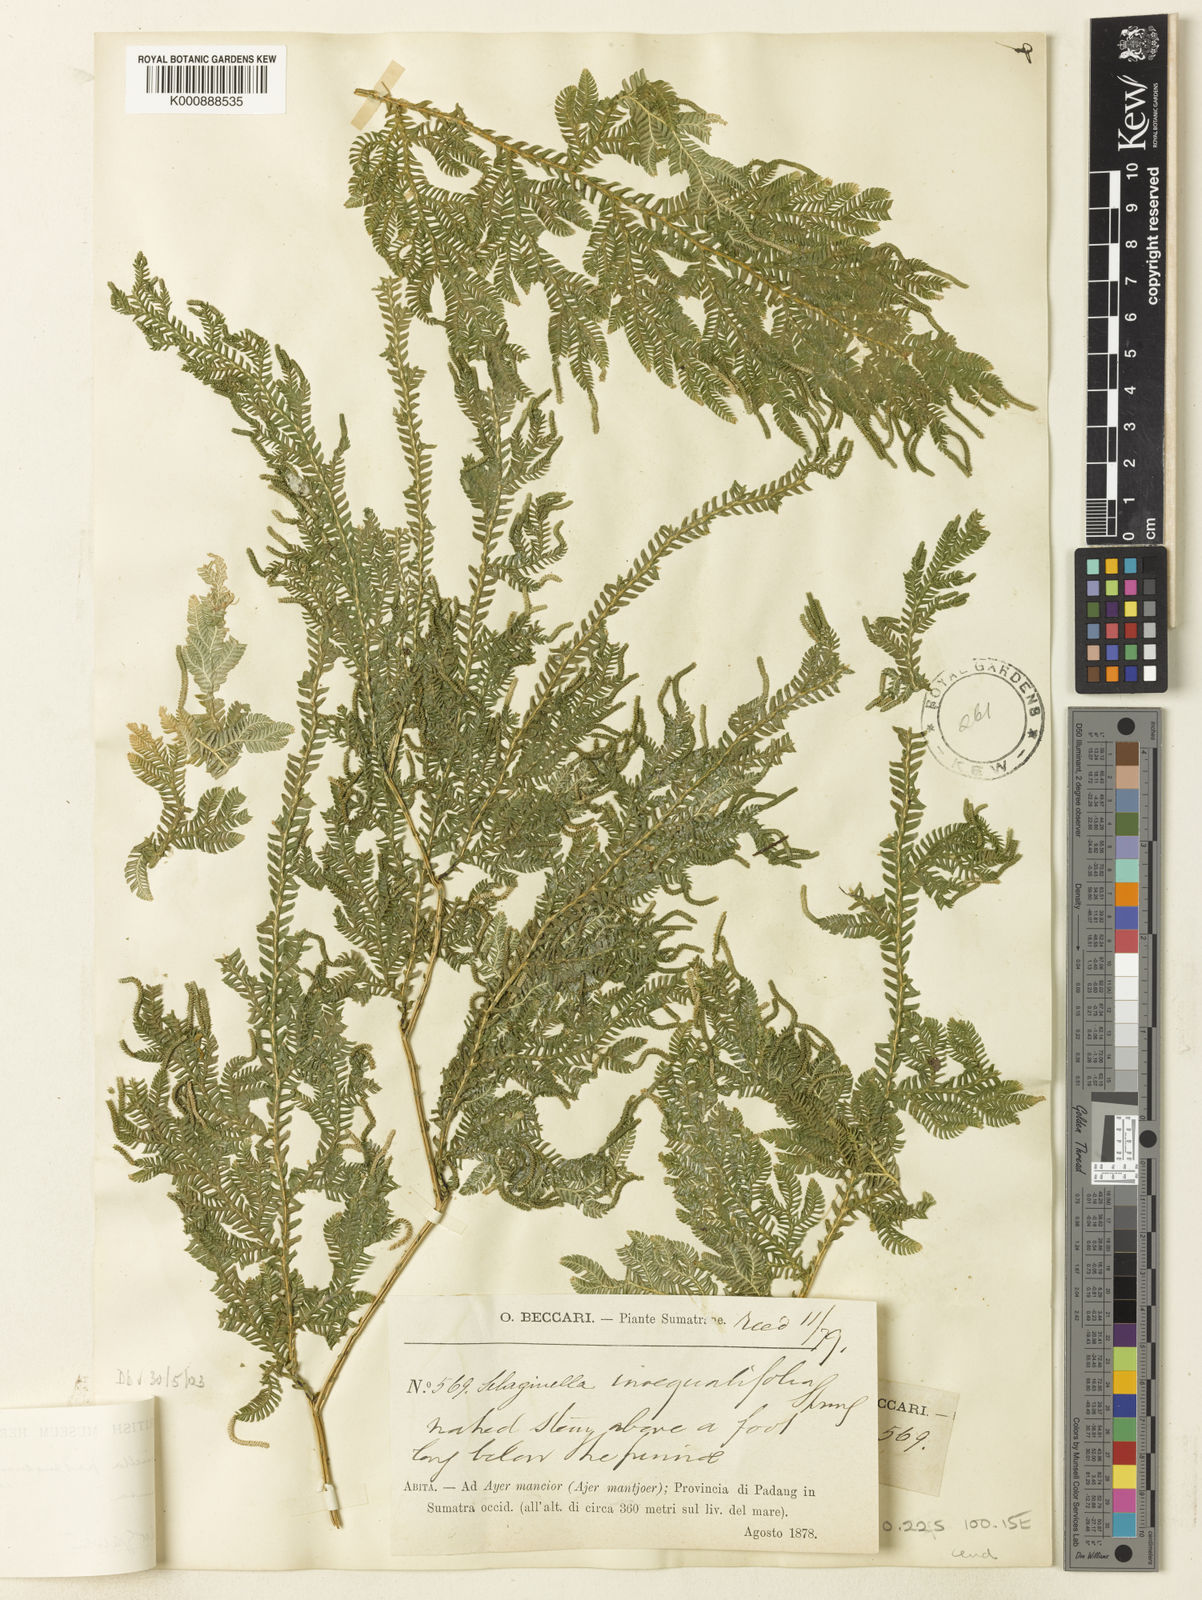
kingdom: Plantae
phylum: Tracheophyta
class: Lycopodiopsida
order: Selaginellales
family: Selaginellaceae
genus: Selaginella
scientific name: Selaginella padangensis
